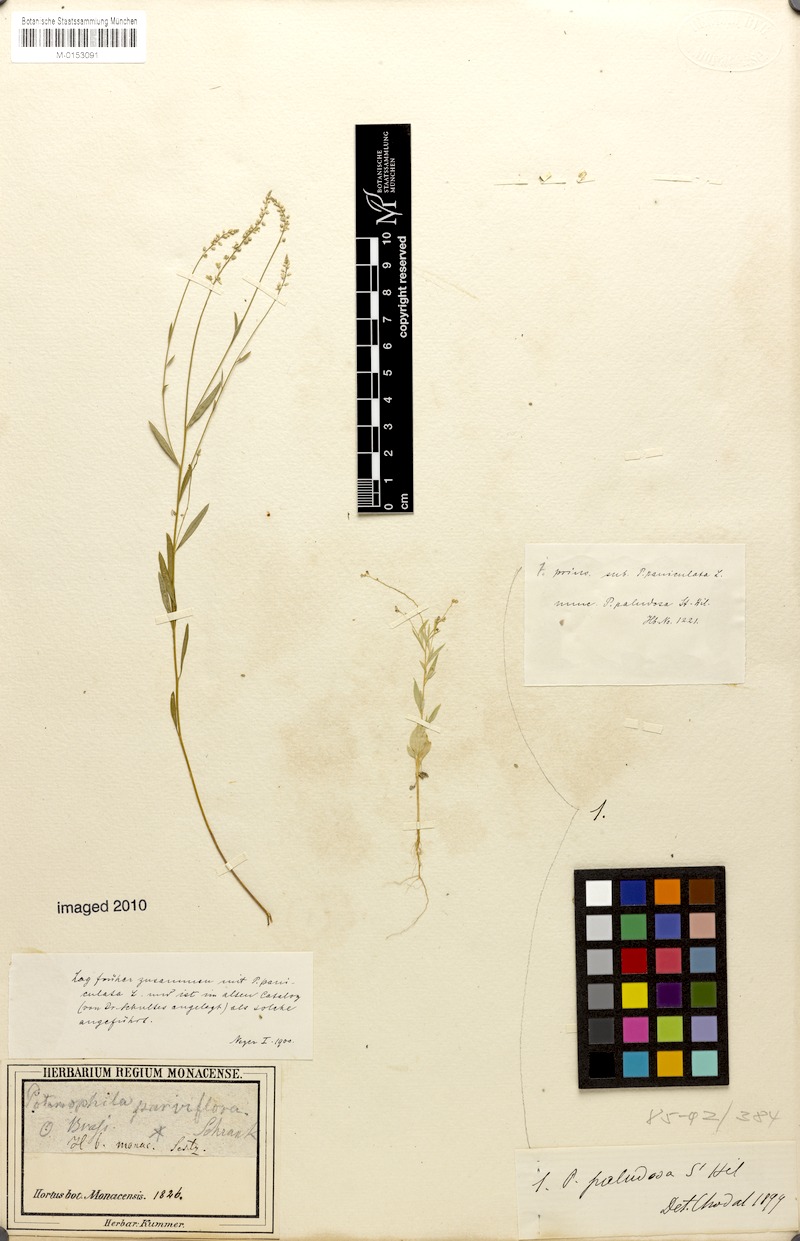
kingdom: Plantae
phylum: Tracheophyta
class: Magnoliopsida
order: Fabales
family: Polygalaceae
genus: Polygala
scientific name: Polygala tenuis
